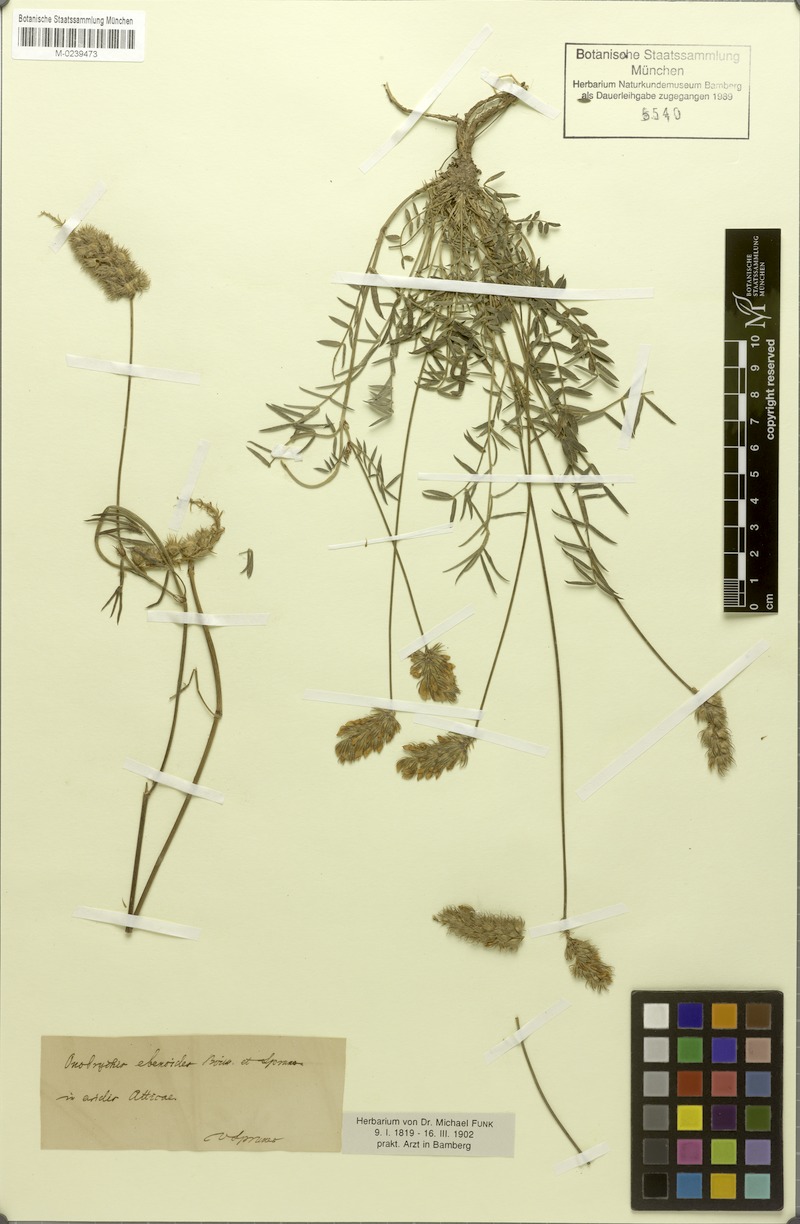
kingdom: Plantae
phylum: Tracheophyta
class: Magnoliopsida
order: Fabales
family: Fabaceae
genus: Onobrychis
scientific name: Onobrychis ebenoides
